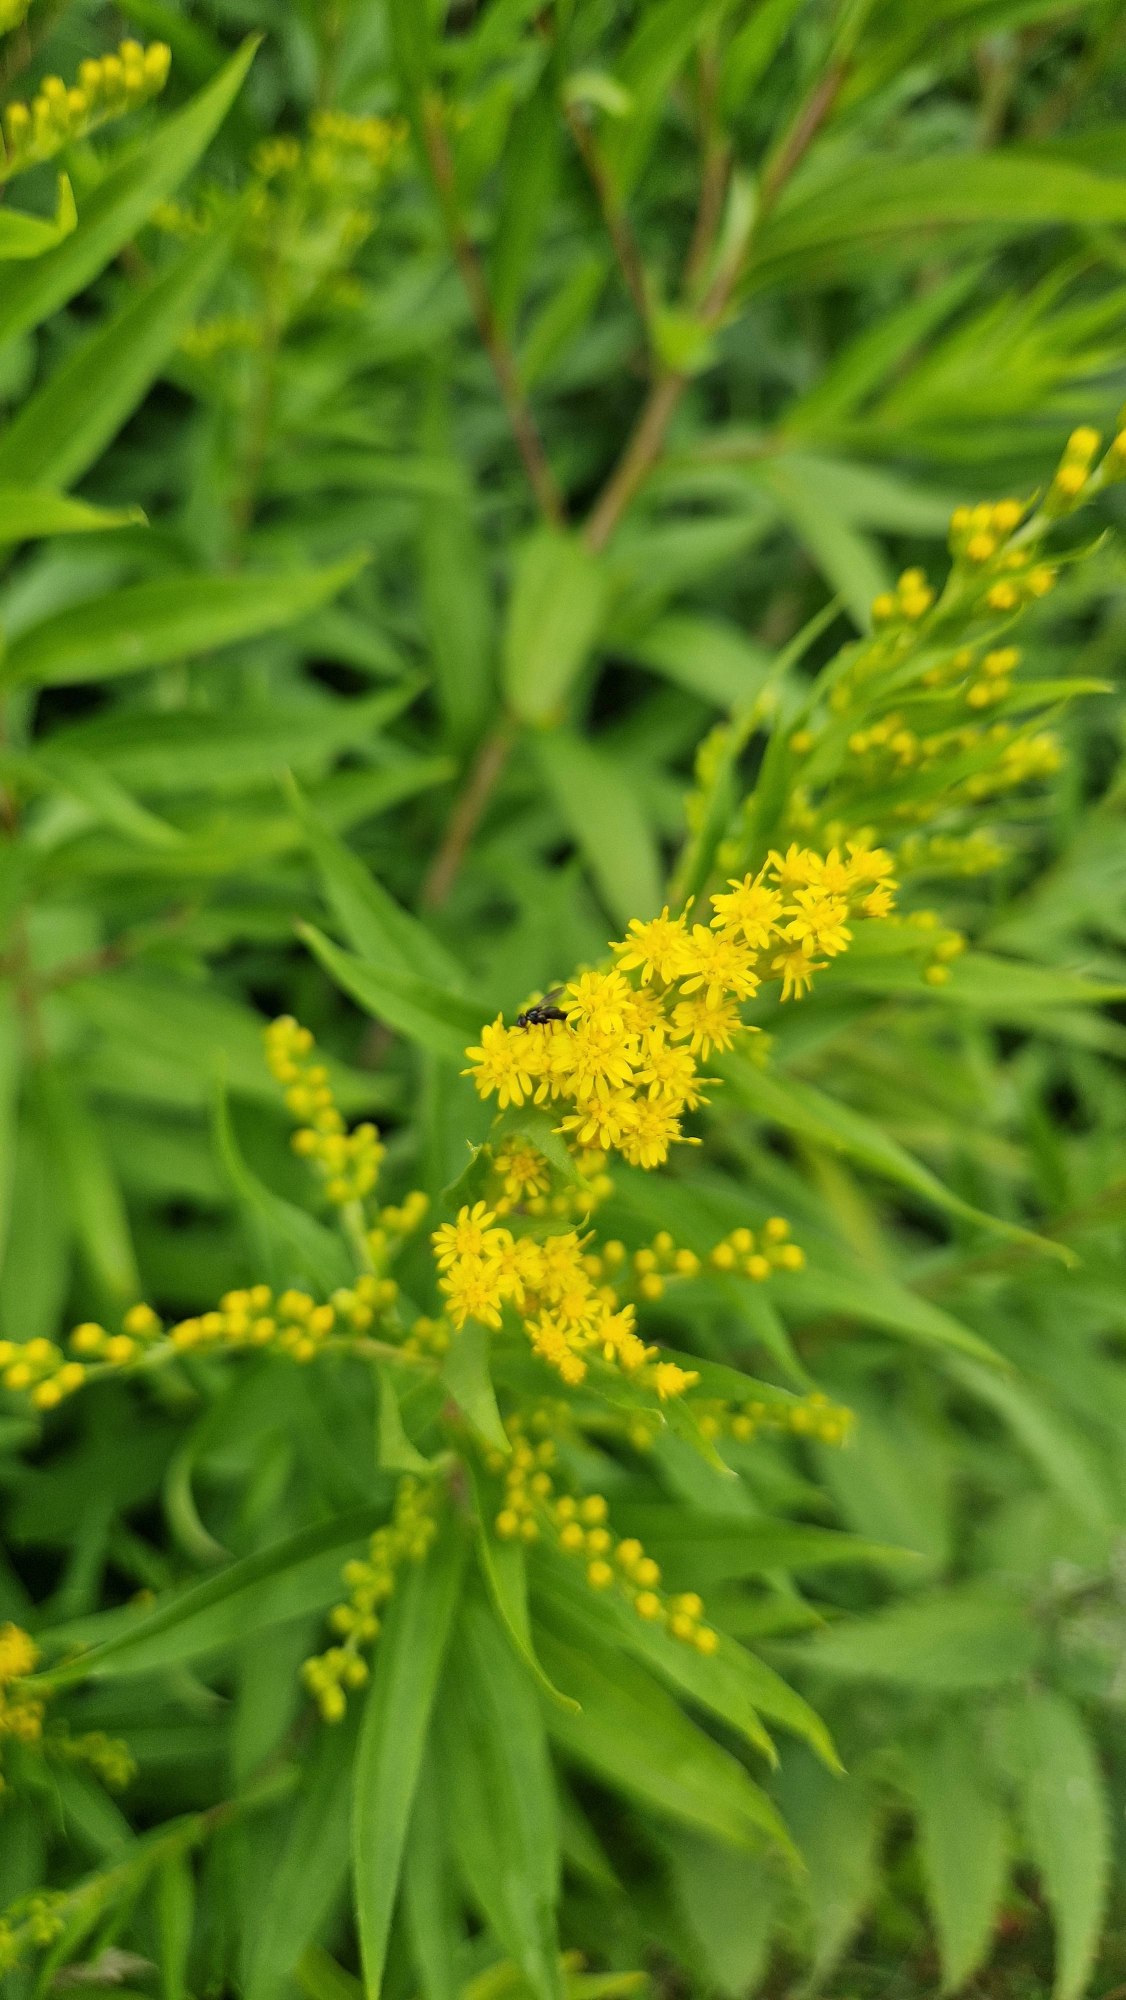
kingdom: Plantae
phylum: Tracheophyta
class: Magnoliopsida
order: Asterales
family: Asteraceae
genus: Solidago
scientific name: Solidago gigantea
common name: Sildig gyldenris
